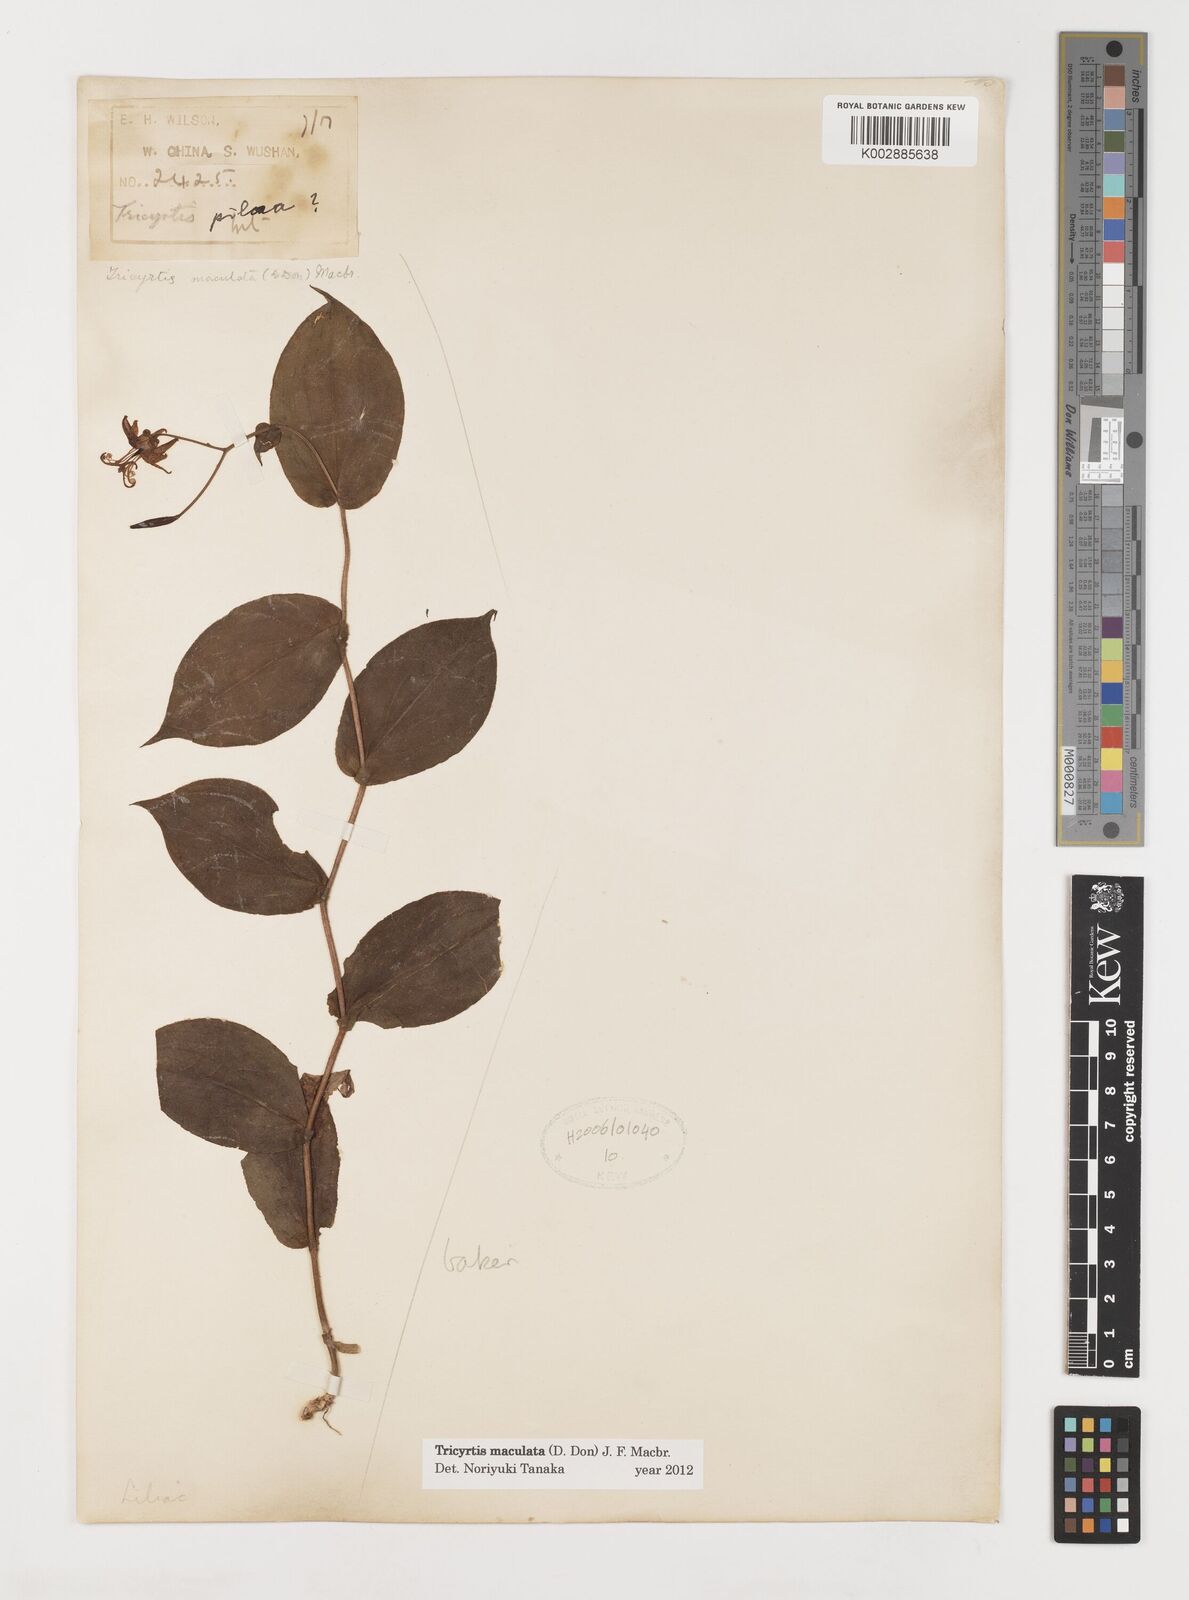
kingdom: Plantae
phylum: Tracheophyta
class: Liliopsida
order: Liliales
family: Liliaceae
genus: Tricyrtis
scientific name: Tricyrtis maculata
